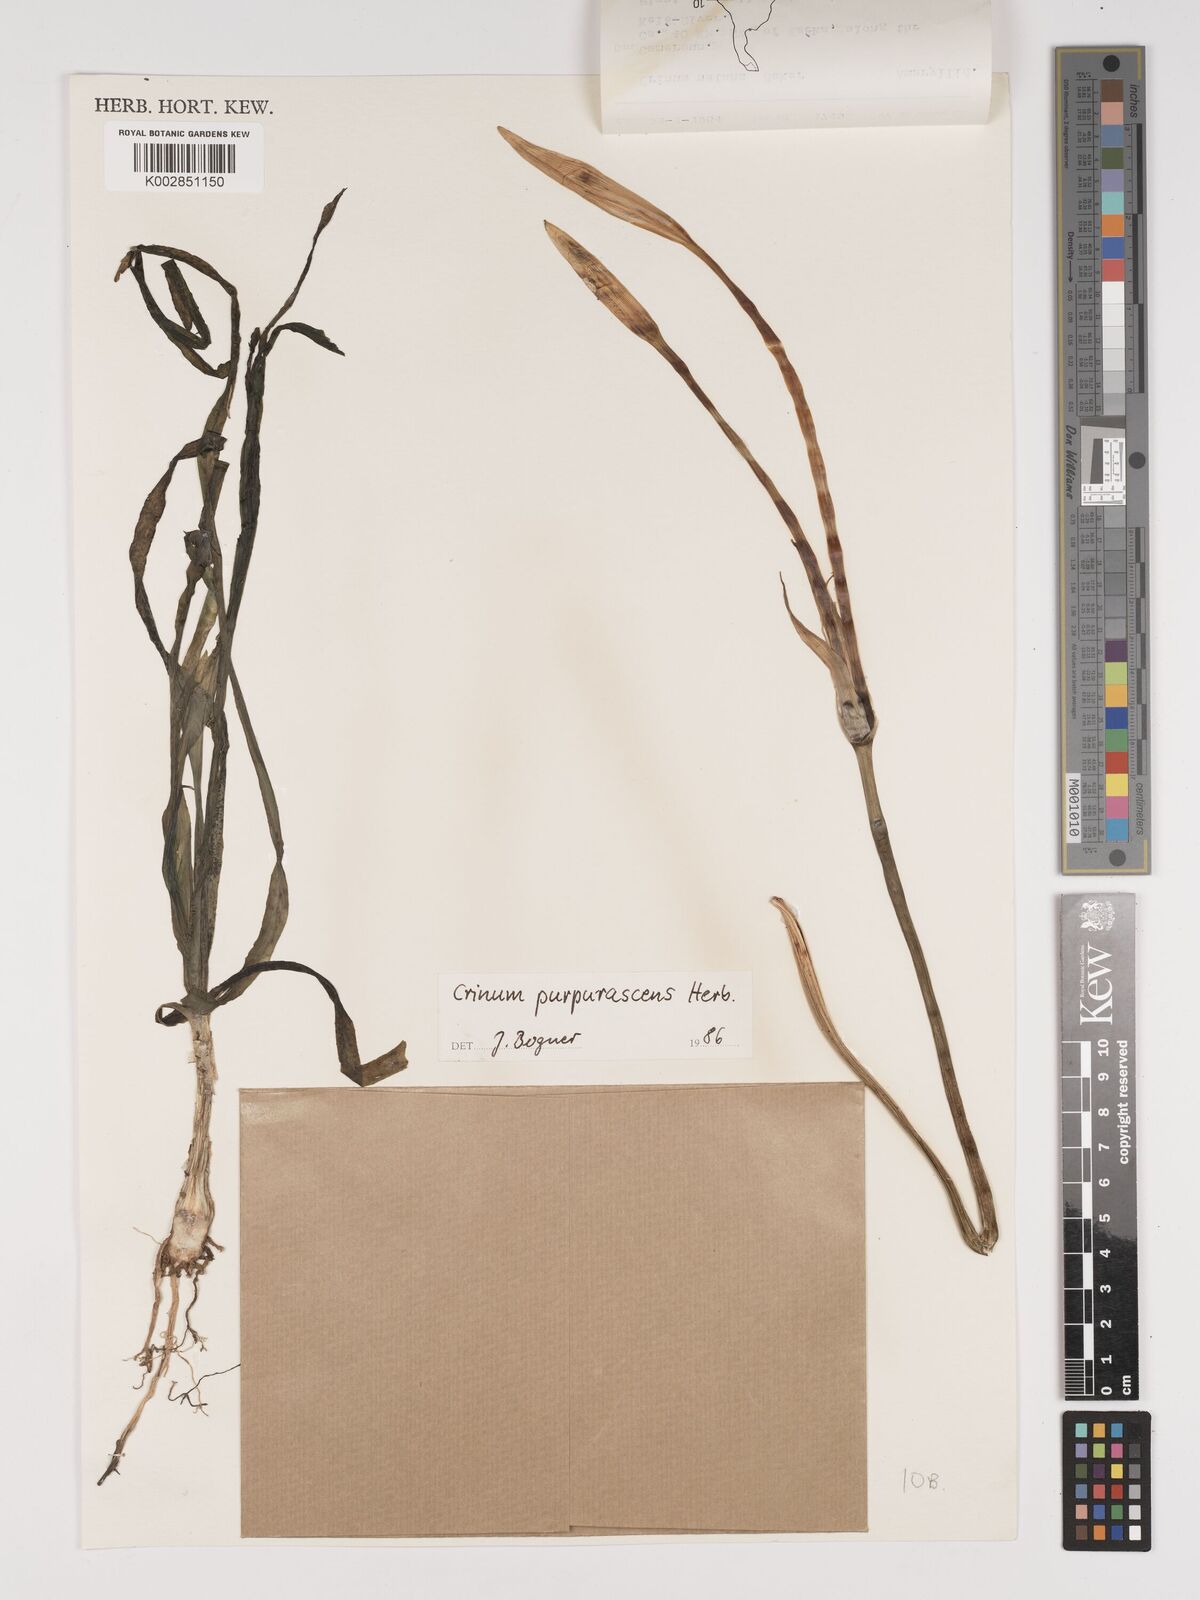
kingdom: Plantae
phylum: Tracheophyta
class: Liliopsida
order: Asparagales
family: Amaryllidaceae
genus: Crinum
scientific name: Crinum natans
